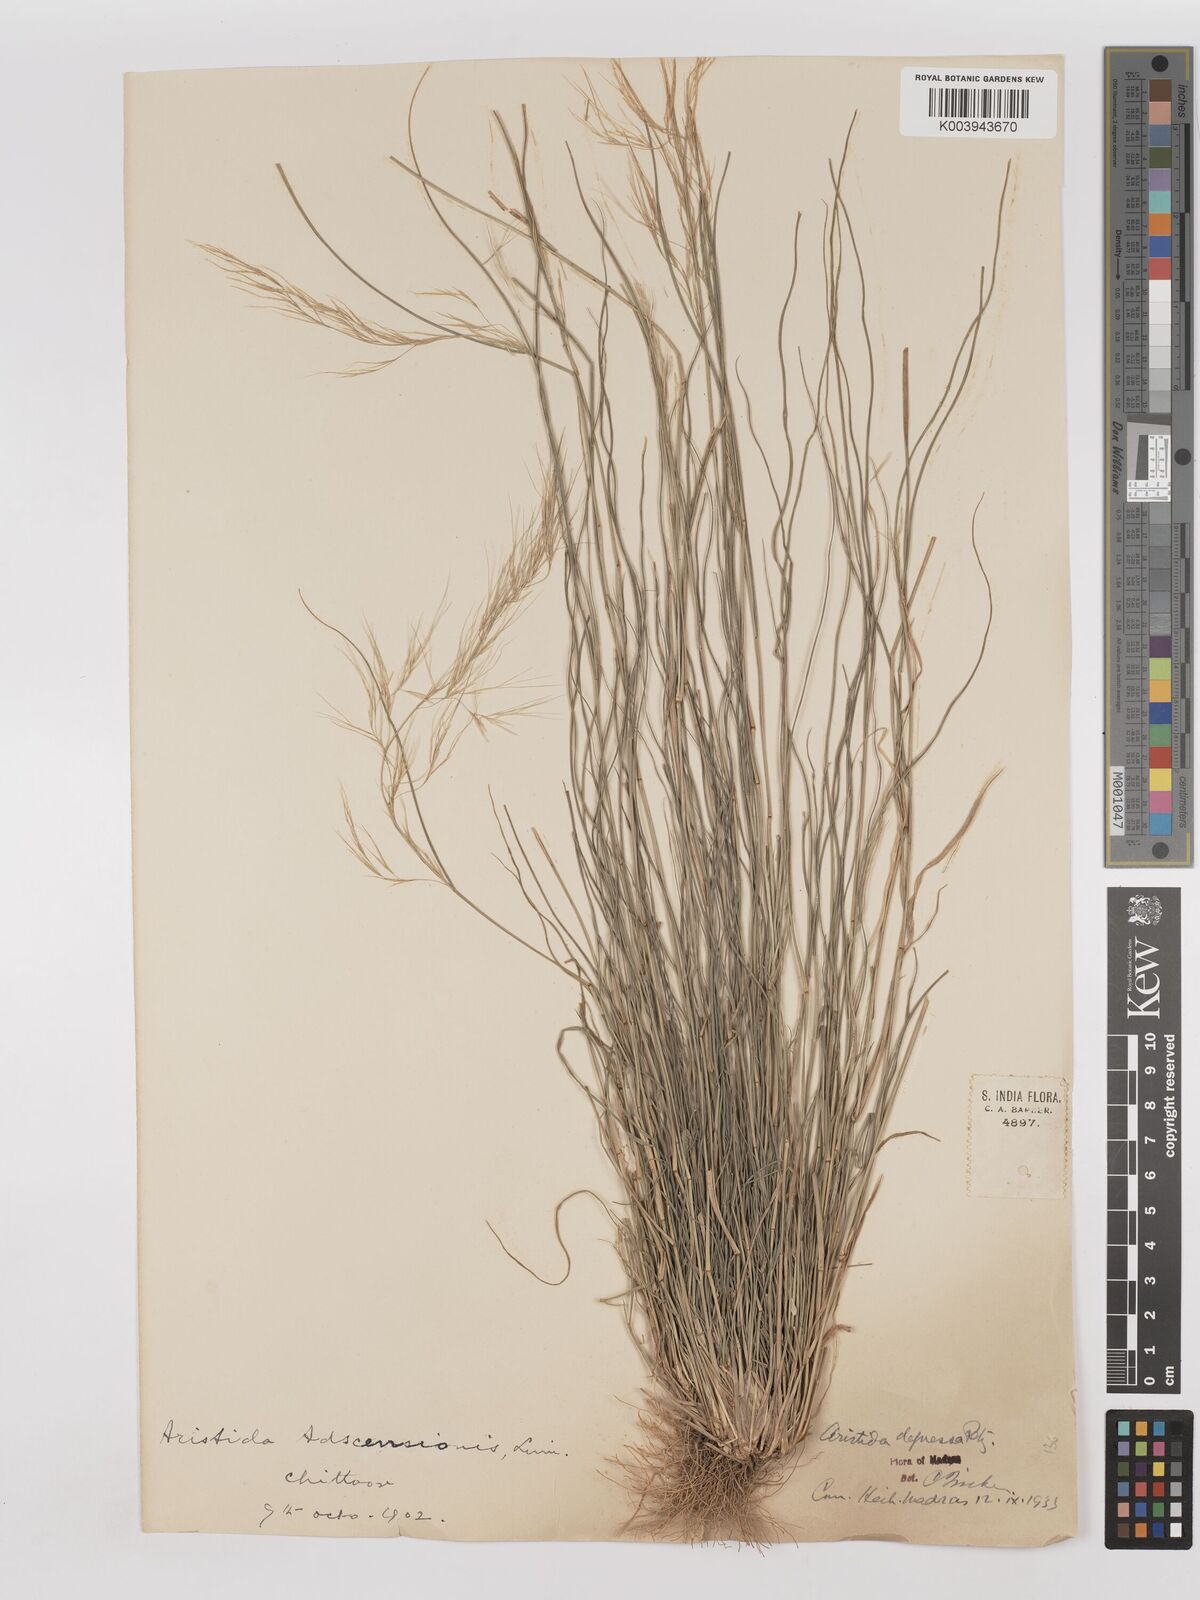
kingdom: Plantae
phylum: Tracheophyta
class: Liliopsida
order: Poales
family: Poaceae
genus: Aristida
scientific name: Aristida adscensionis
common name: Sixweeks threeawn
